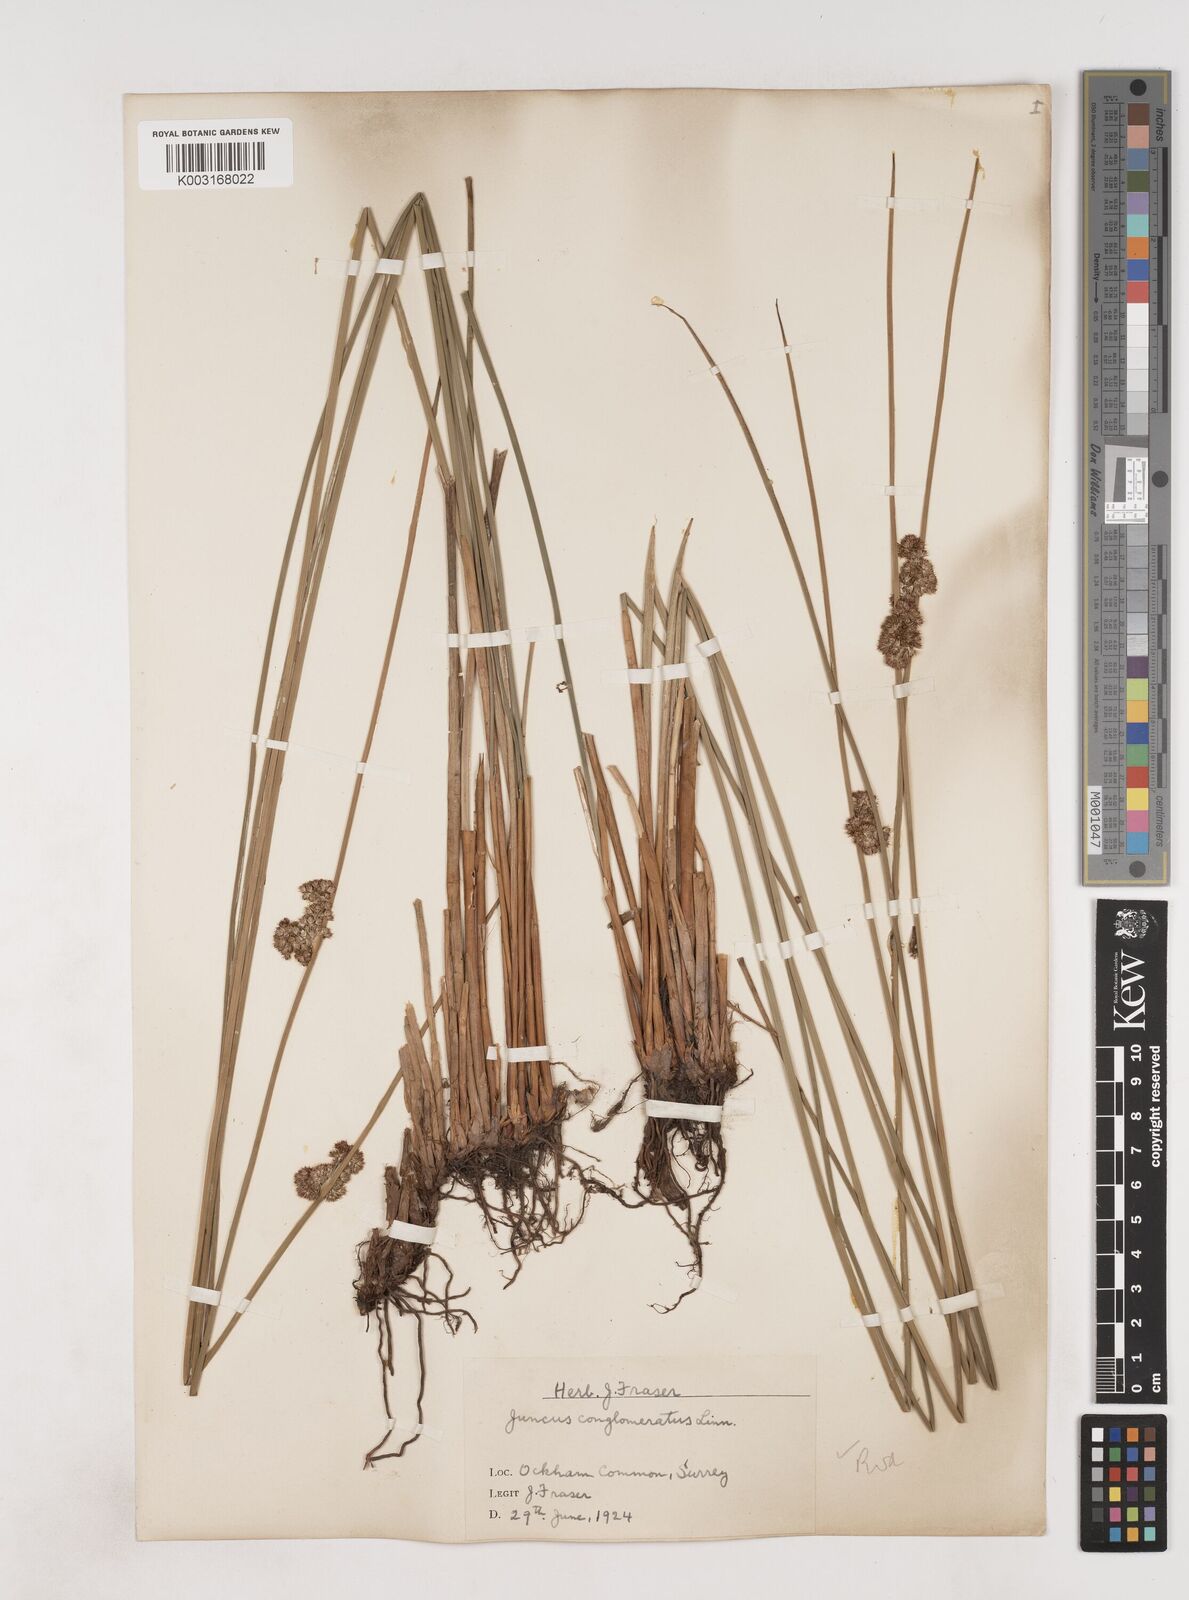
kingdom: Plantae
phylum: Tracheophyta
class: Liliopsida
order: Poales
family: Juncaceae
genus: Juncus
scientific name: Juncus conglomeratus
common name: Compact rush
